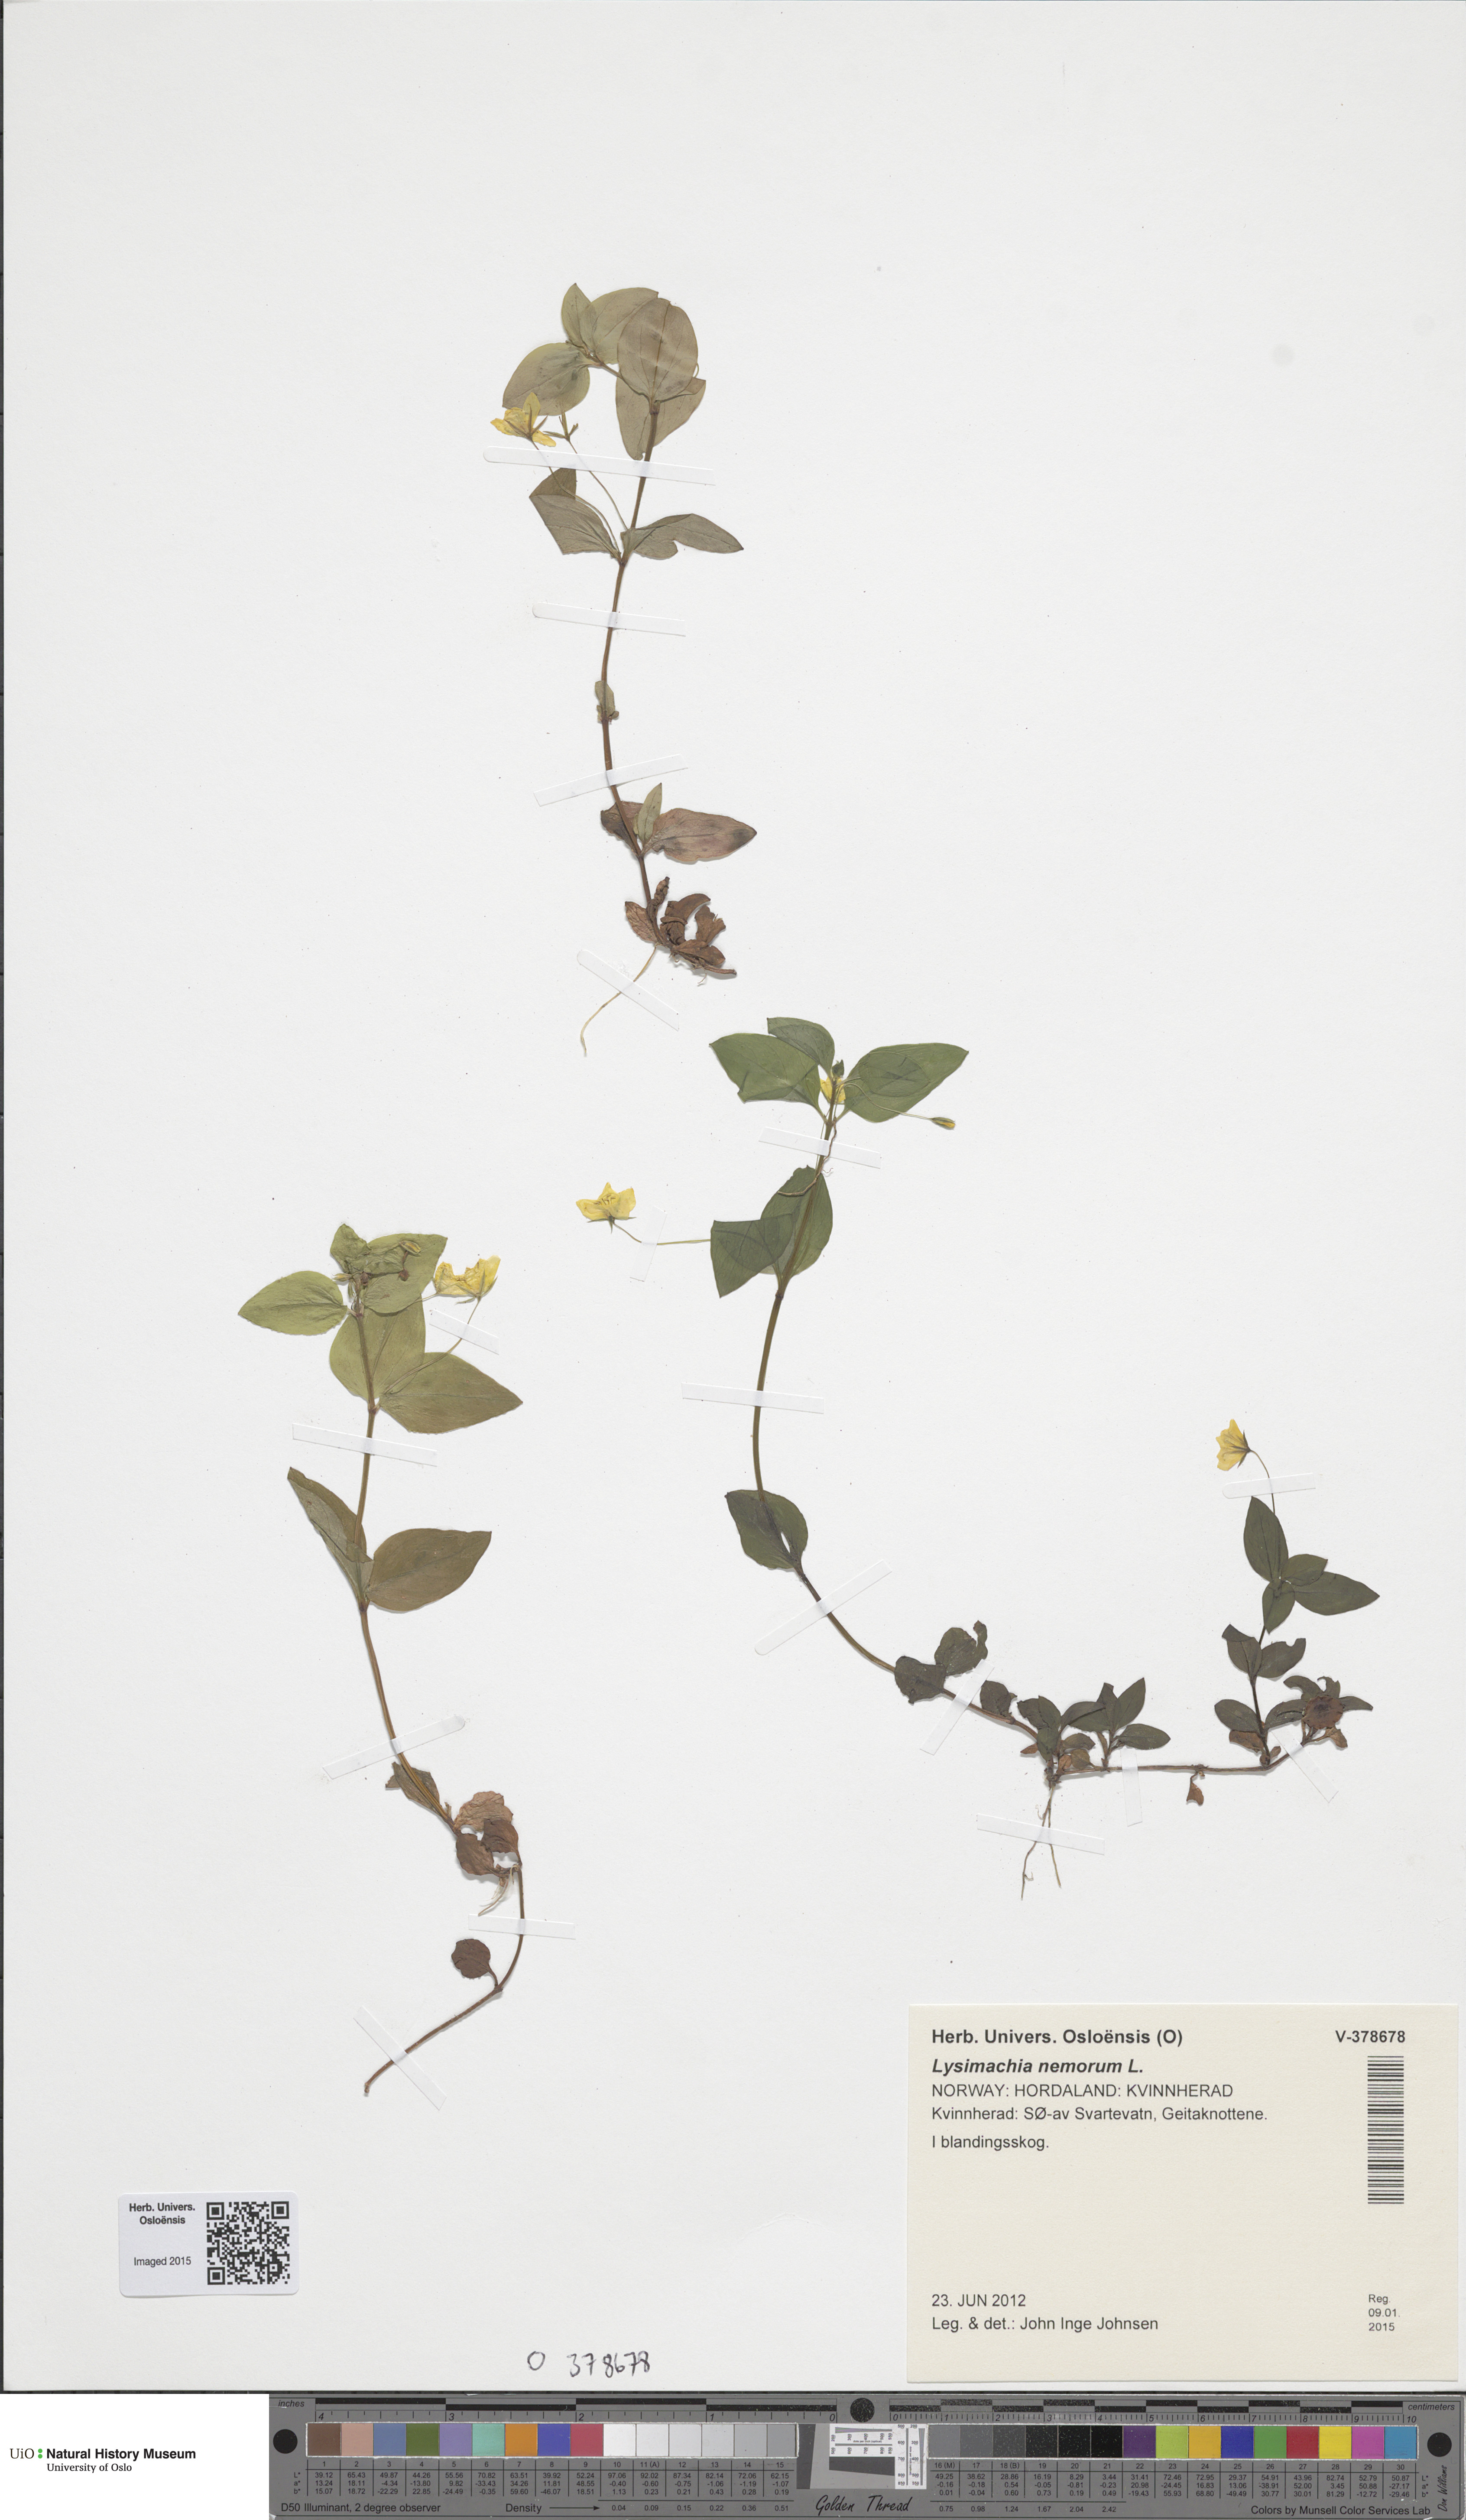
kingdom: Plantae
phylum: Tracheophyta
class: Magnoliopsida
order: Ericales
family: Primulaceae
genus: Lysimachia
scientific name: Lysimachia nemorum
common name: Yellow pimpernel
